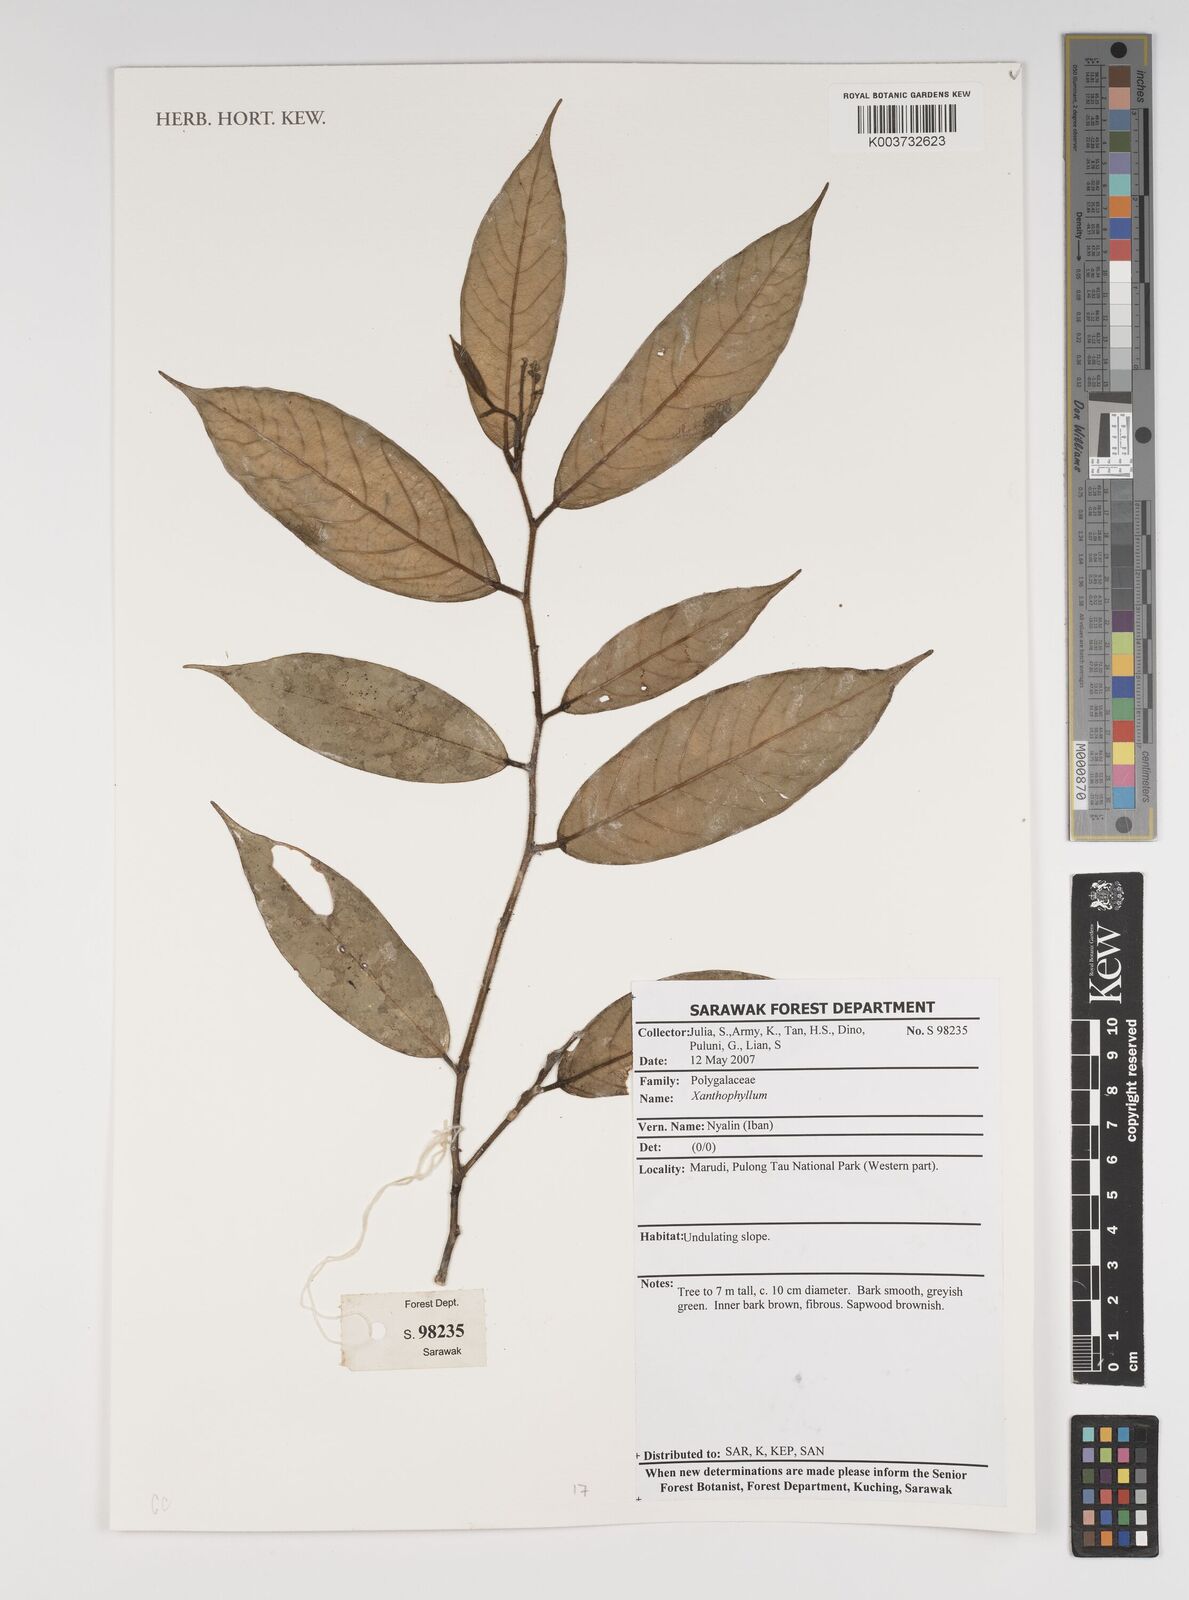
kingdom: Plantae
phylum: Tracheophyta
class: Magnoliopsida
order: Fabales
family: Polygalaceae
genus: Xanthophyllum
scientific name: Xanthophyllum
